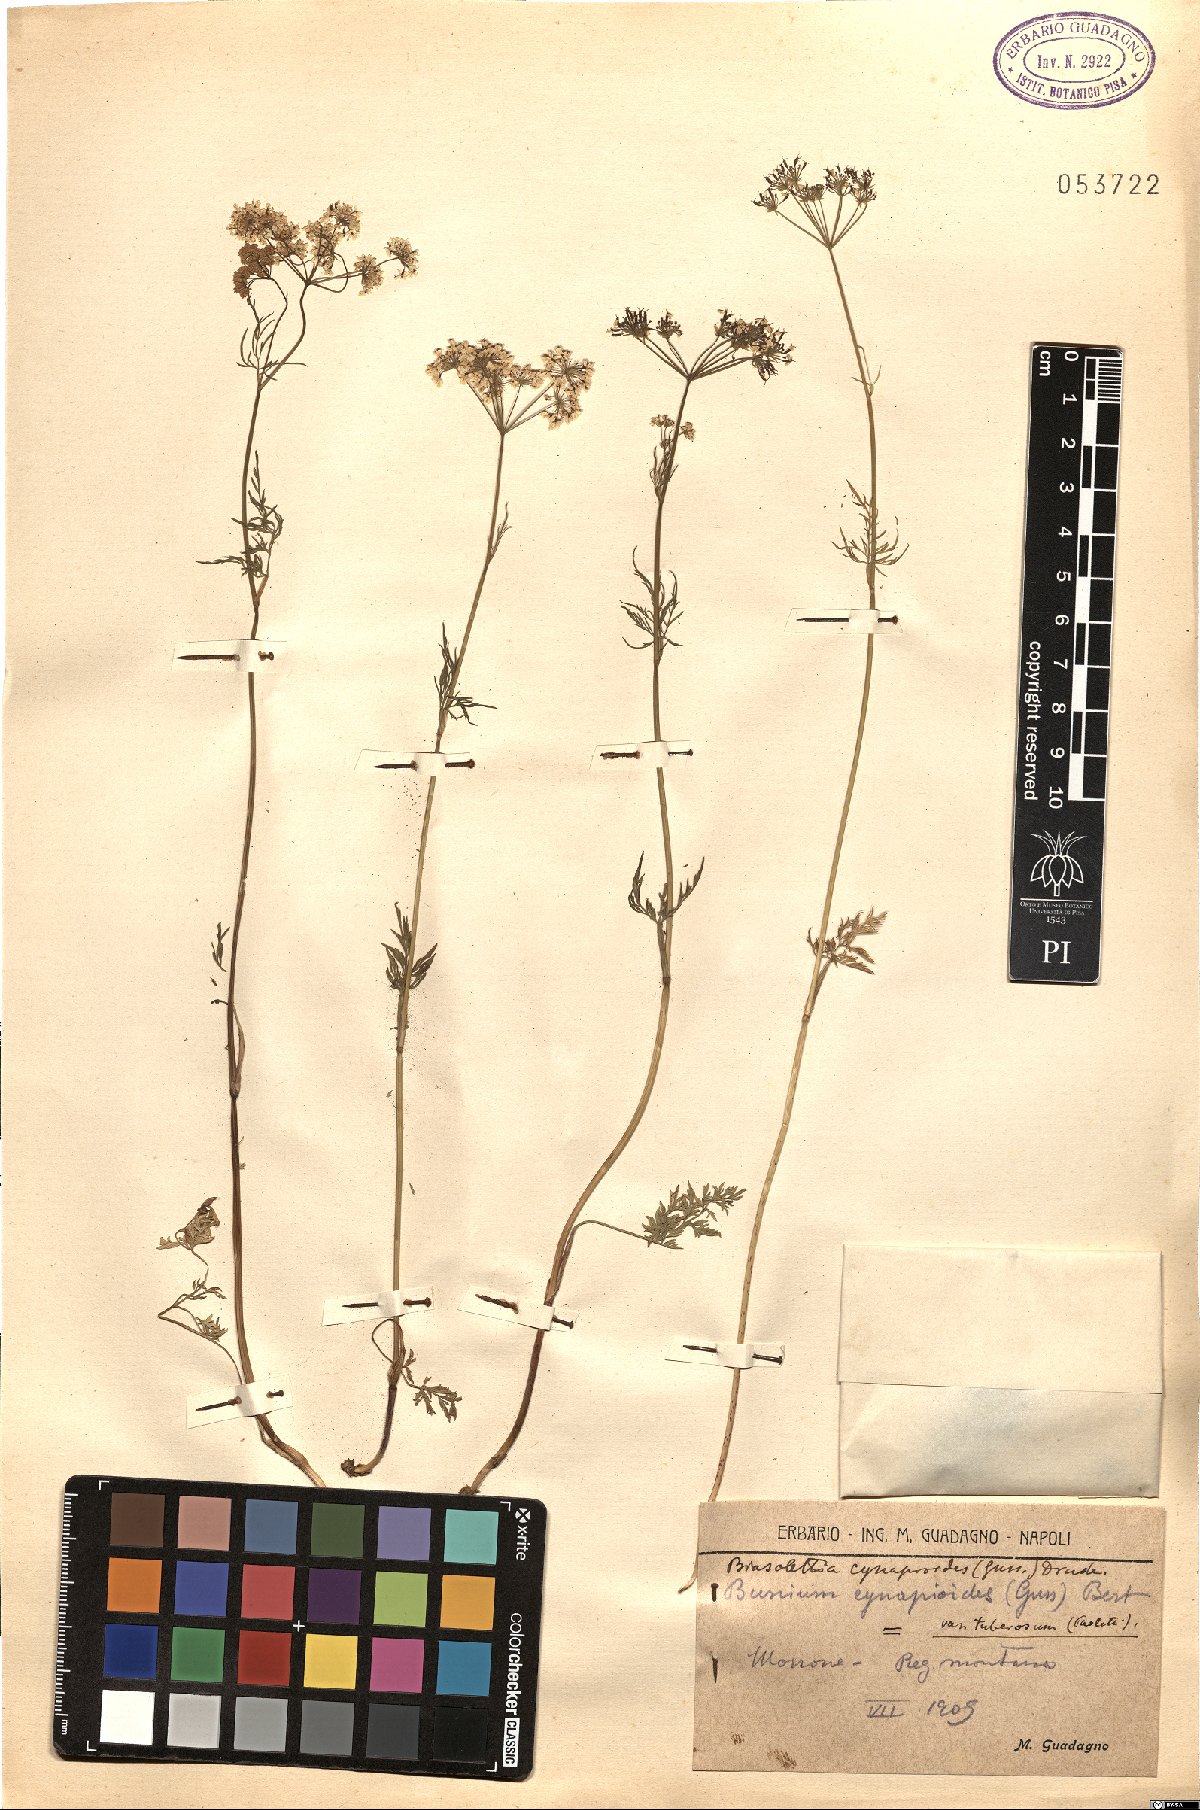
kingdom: Plantae
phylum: Tracheophyta
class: Magnoliopsida
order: Apiales
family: Apiaceae
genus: Geocaryum
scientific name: Geocaryum cynapioides
